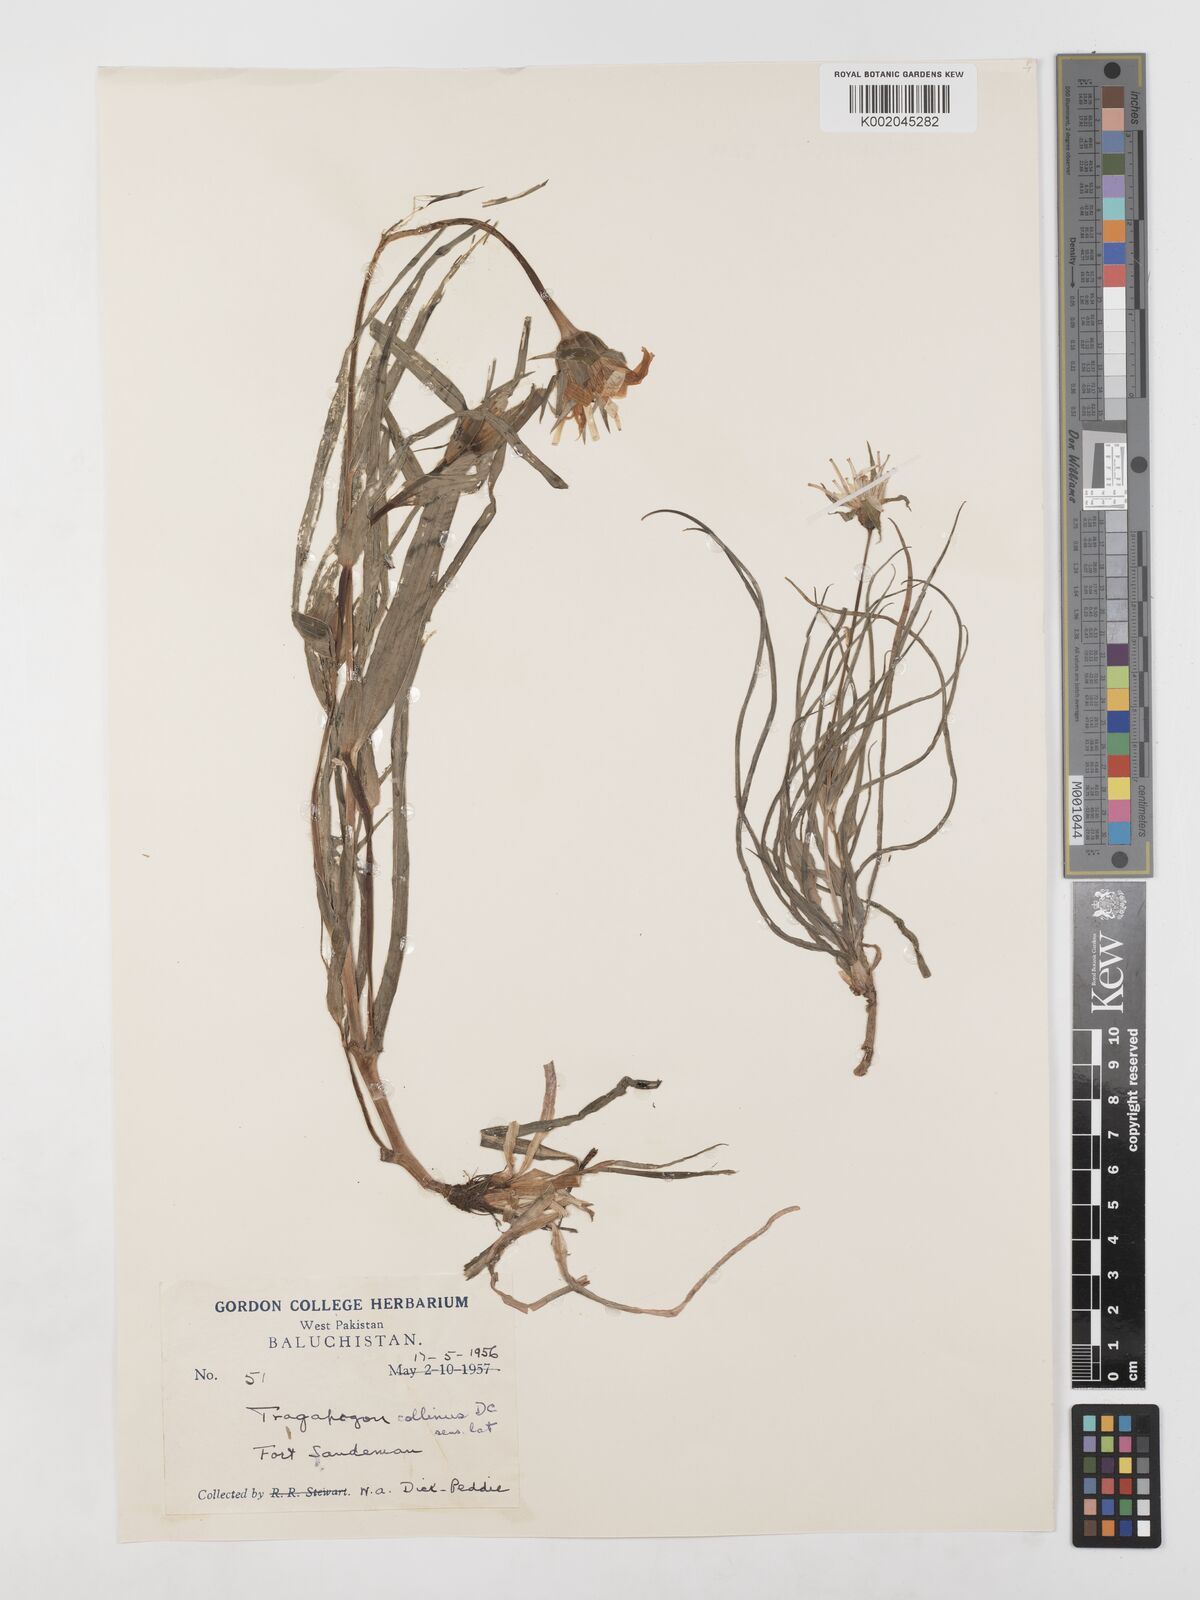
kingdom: Plantae
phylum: Tracheophyta
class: Magnoliopsida
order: Asterales
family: Asteraceae
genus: Tragopogon
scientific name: Tragopogon collinus
